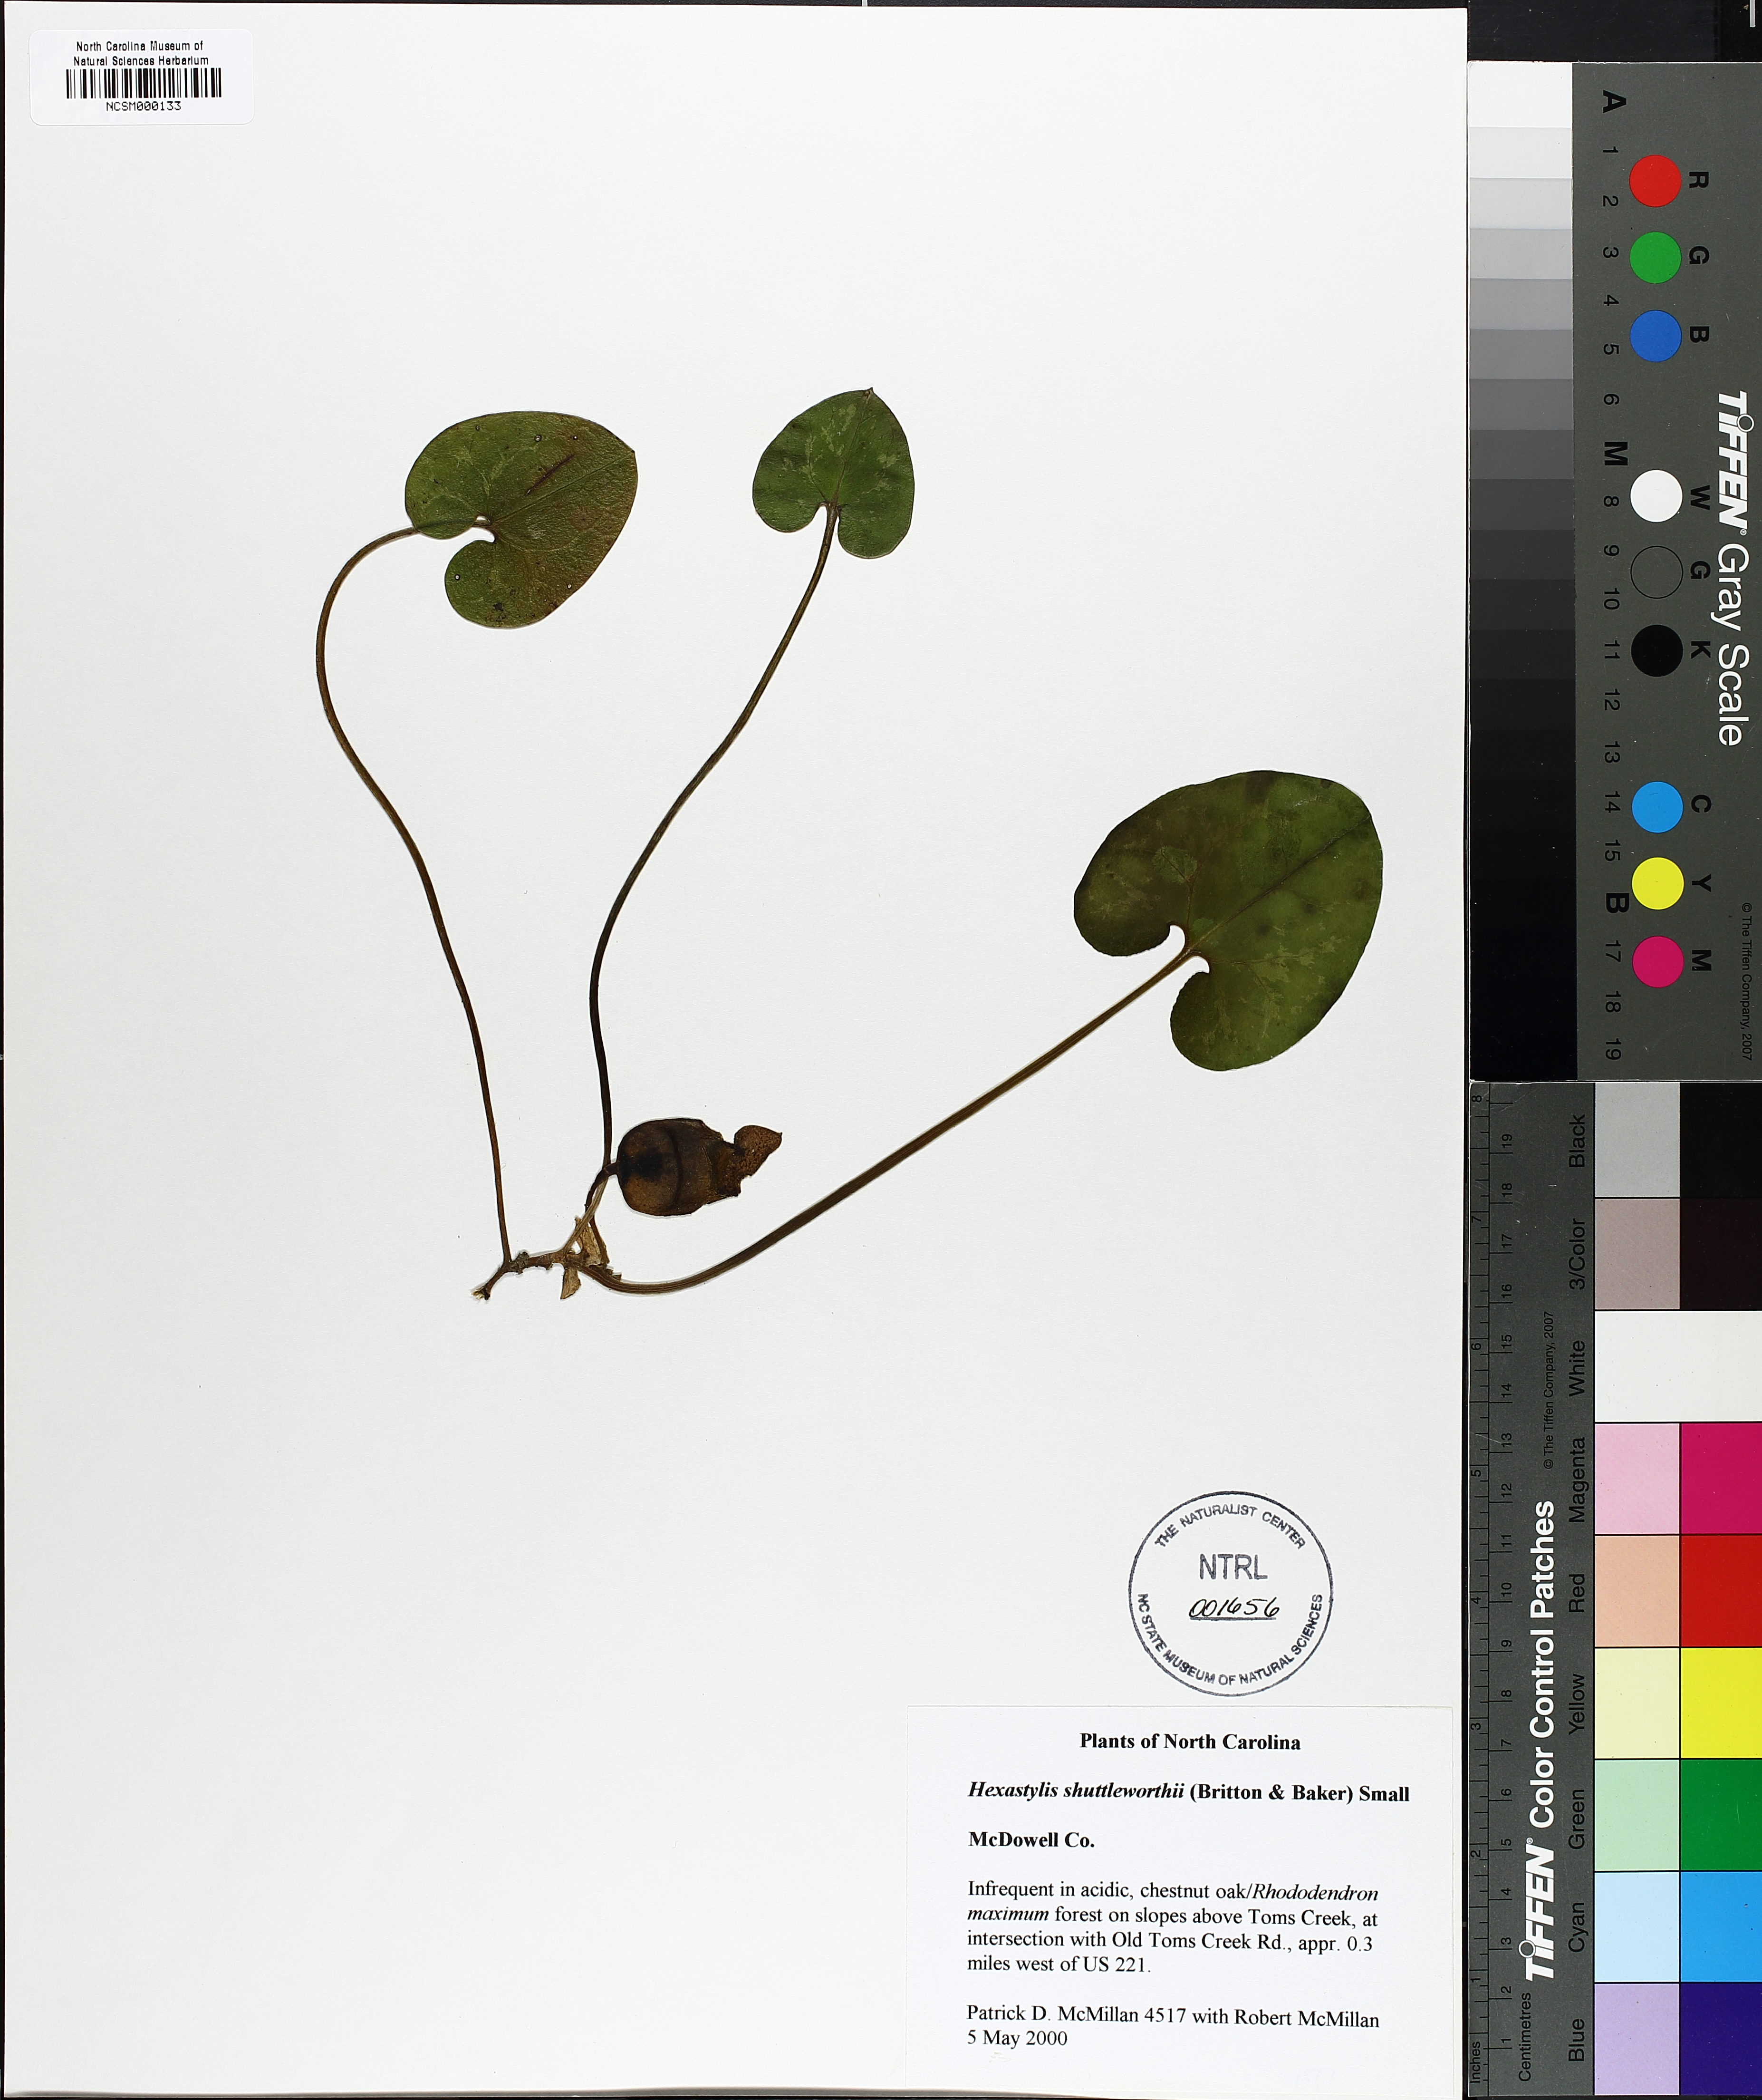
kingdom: Plantae
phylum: Tracheophyta
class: Magnoliopsida
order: Piperales
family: Aristolochiaceae
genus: Hexastylis
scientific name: Hexastylis shuttleworthii
